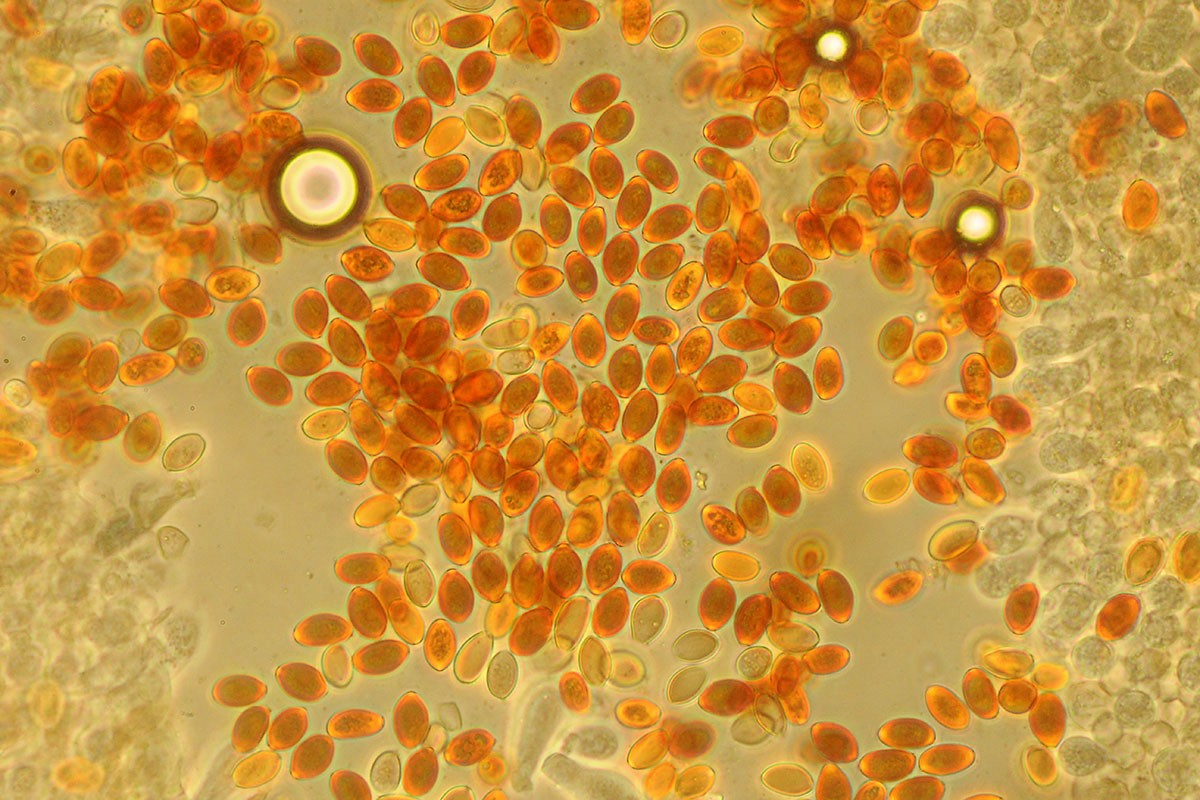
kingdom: Fungi
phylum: Basidiomycota
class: Agaricomycetes
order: Agaricales
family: Bolbitiaceae
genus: Conocybe
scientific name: Conocybe brunneidisca
